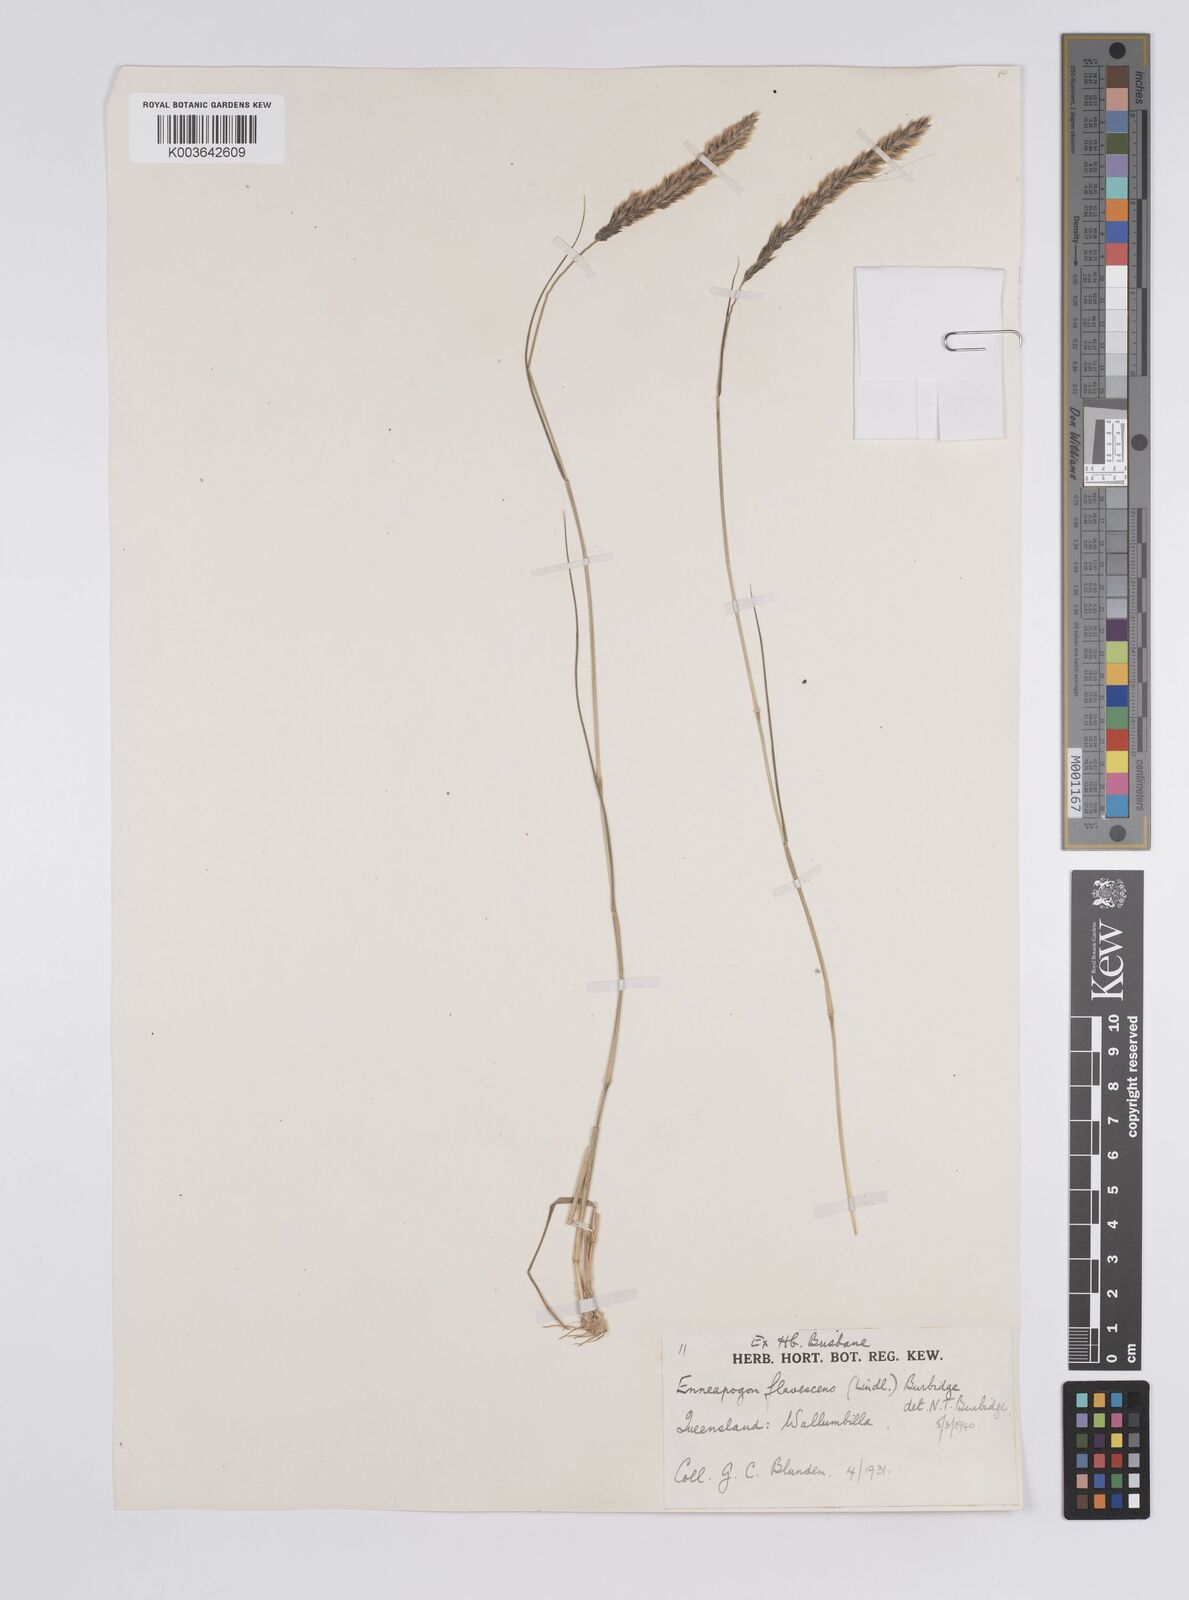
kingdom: Plantae
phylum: Tracheophyta
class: Liliopsida
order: Poales
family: Poaceae
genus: Enneapogon
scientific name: Enneapogon truncatus
